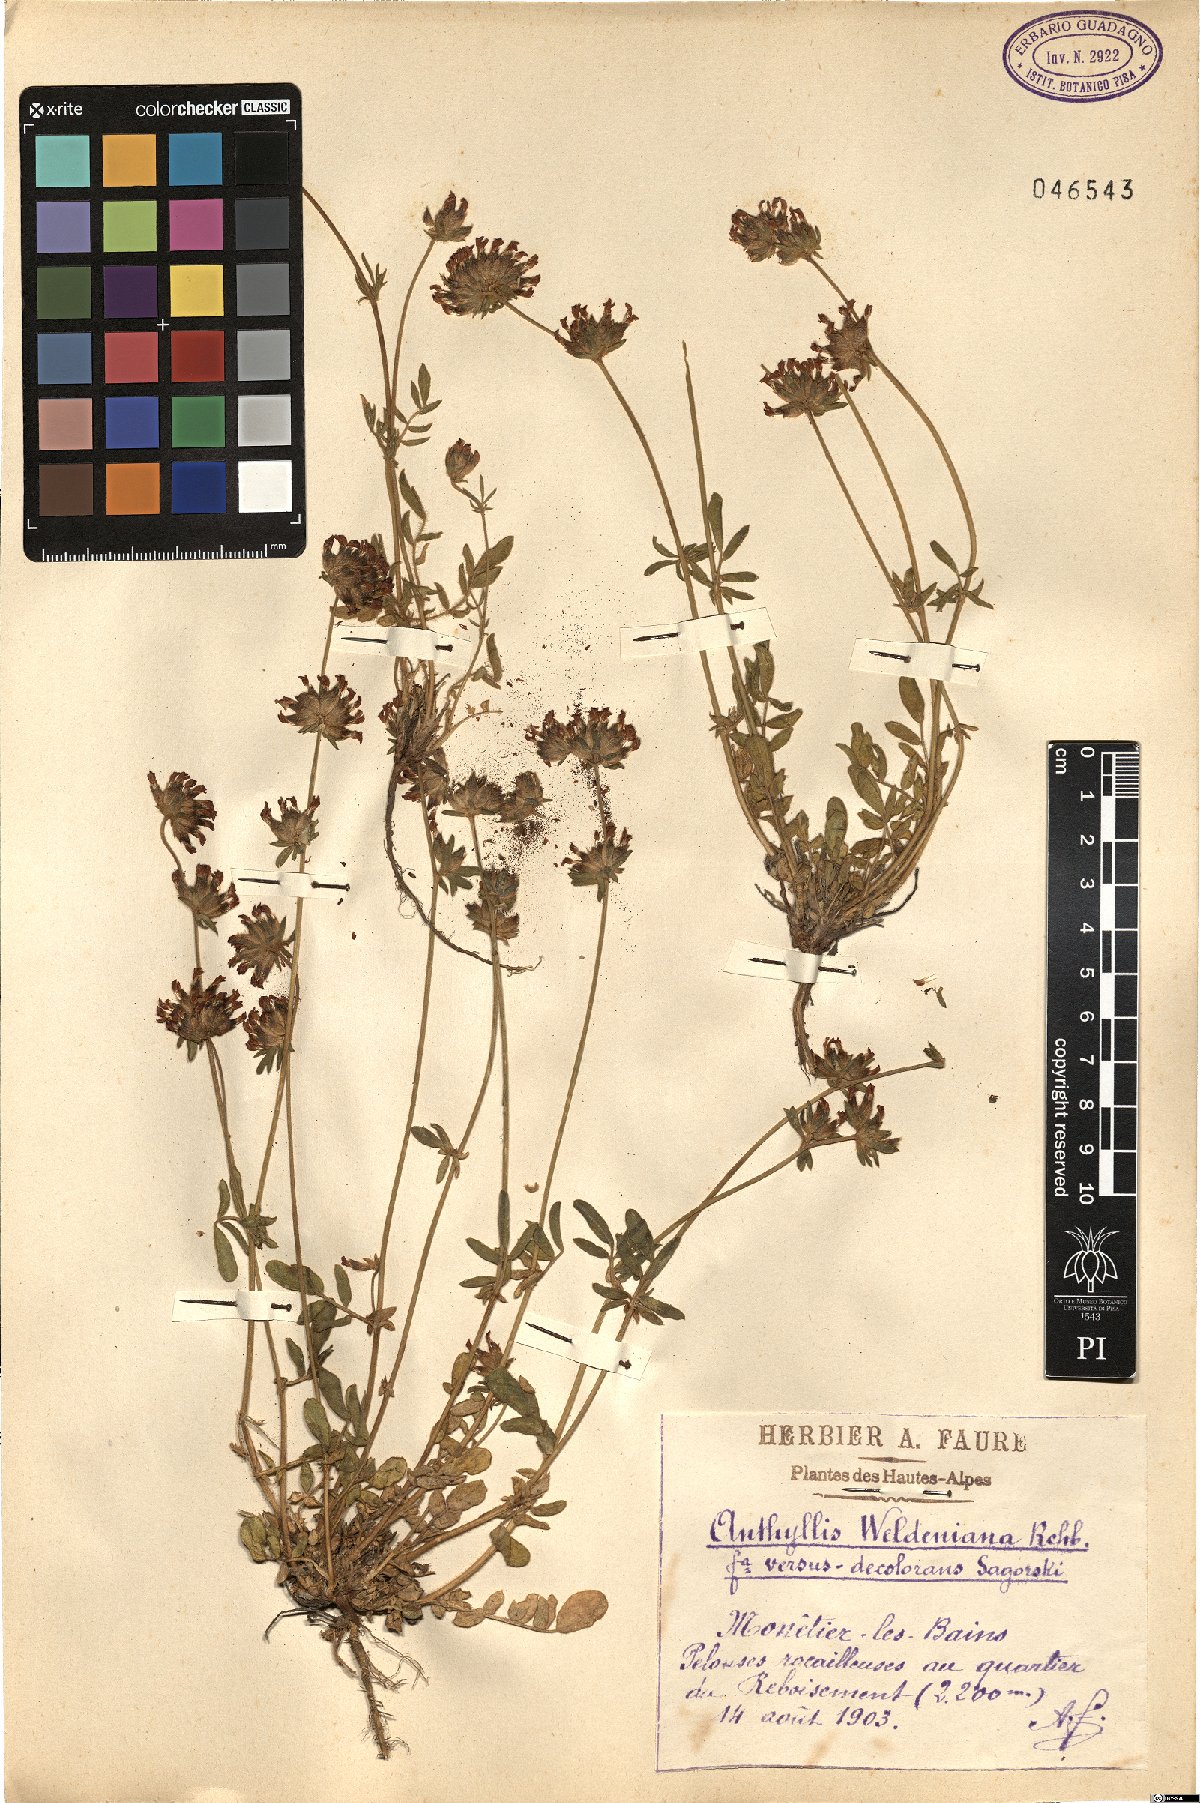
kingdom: Plantae
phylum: Tracheophyta
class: Magnoliopsida
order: Fabales
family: Fabaceae
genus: Anthyllis
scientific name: Anthyllis vulneraria
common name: Kidney vetch
